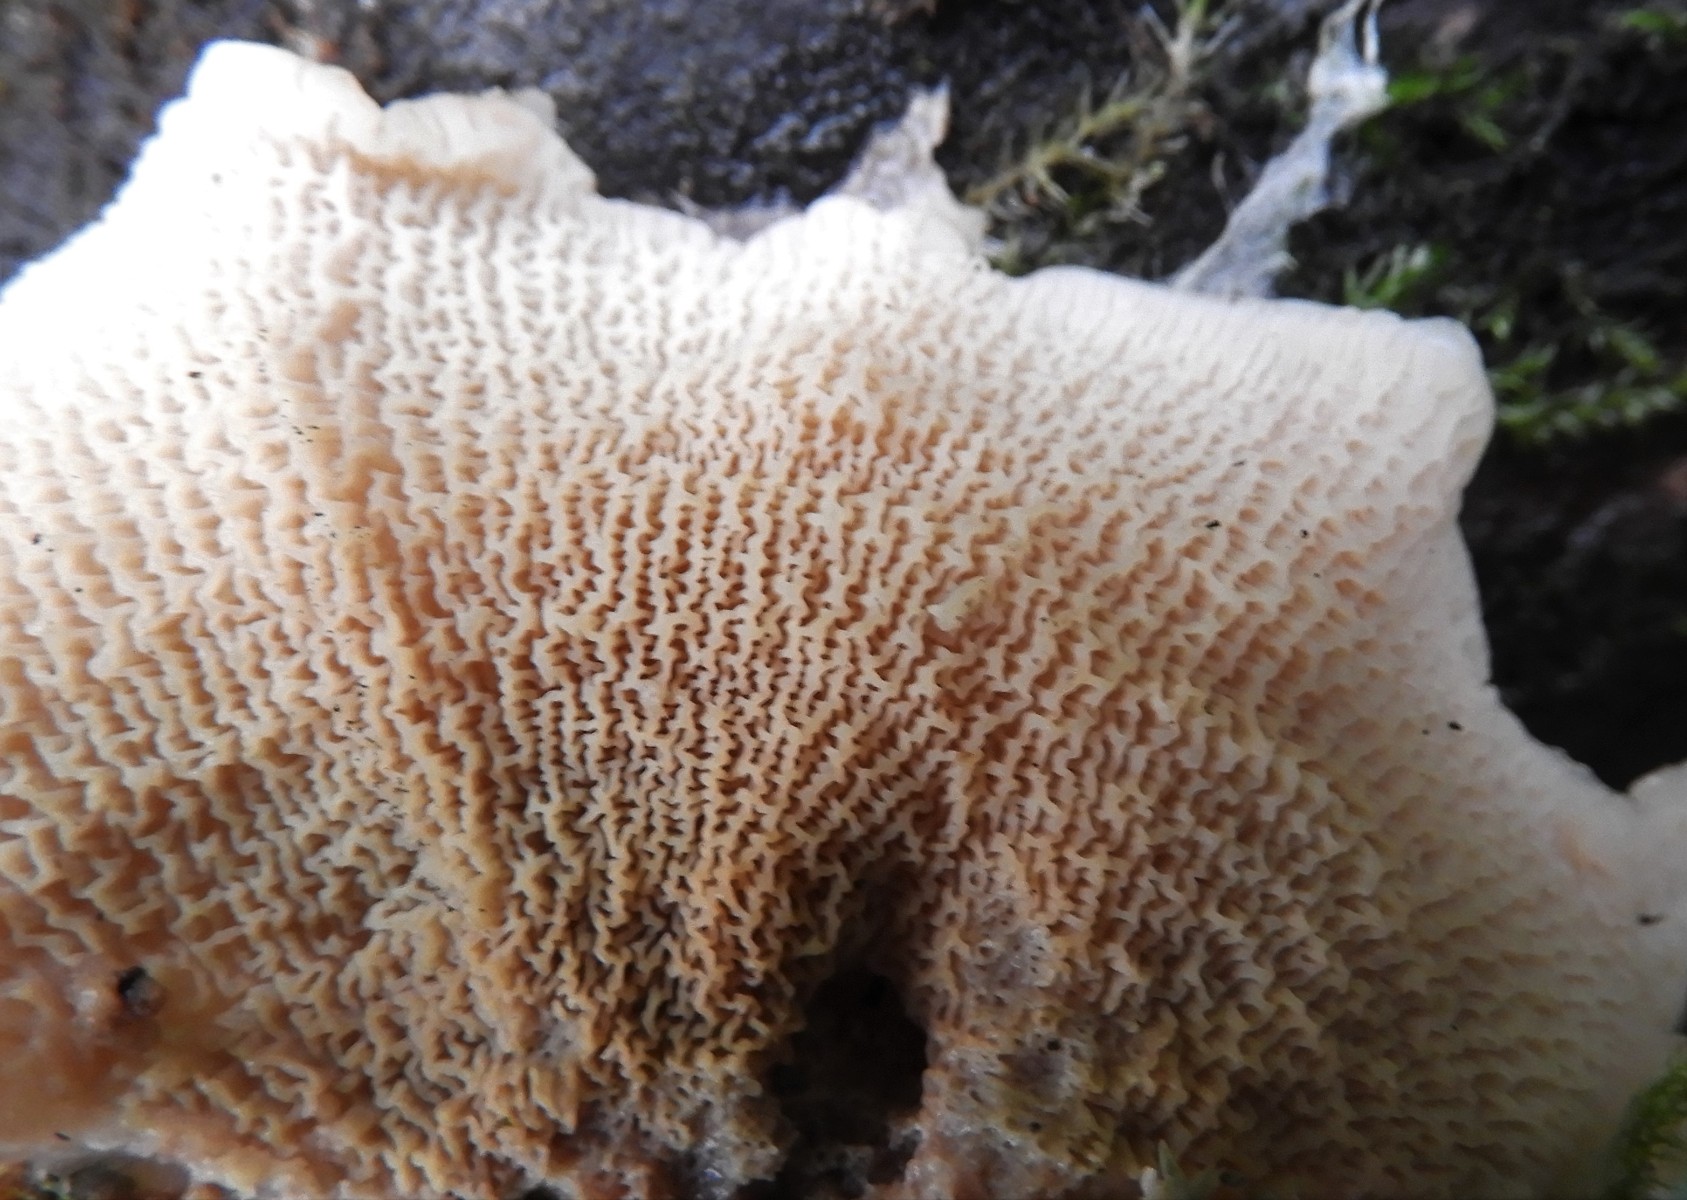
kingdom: Fungi
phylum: Basidiomycota
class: Agaricomycetes
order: Polyporales
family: Meruliaceae
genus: Phlebia
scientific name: Phlebia tremellosa
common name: bævrende åresvamp
